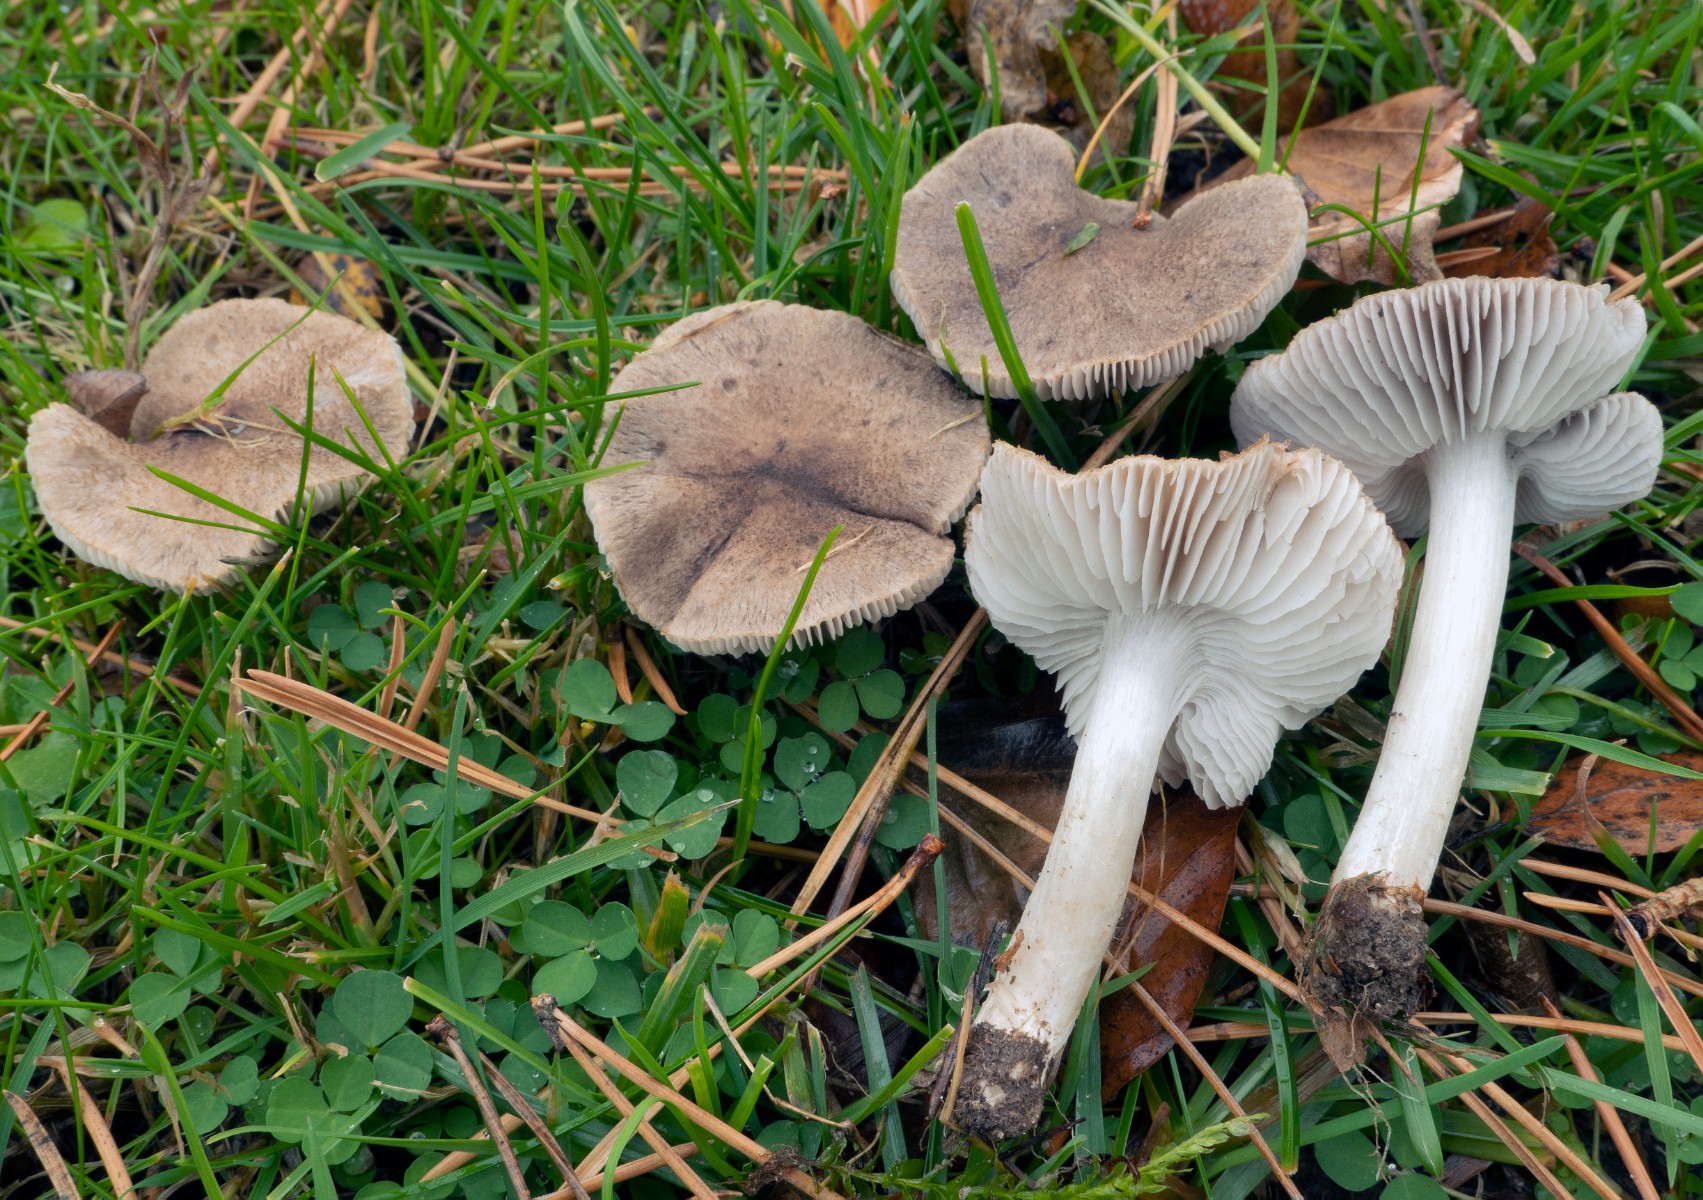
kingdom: Fungi
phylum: Basidiomycota
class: Agaricomycetes
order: Agaricales
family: Tricholomataceae
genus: Tricholoma
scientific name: Tricholoma terreum
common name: jordfarvet ridderhat
